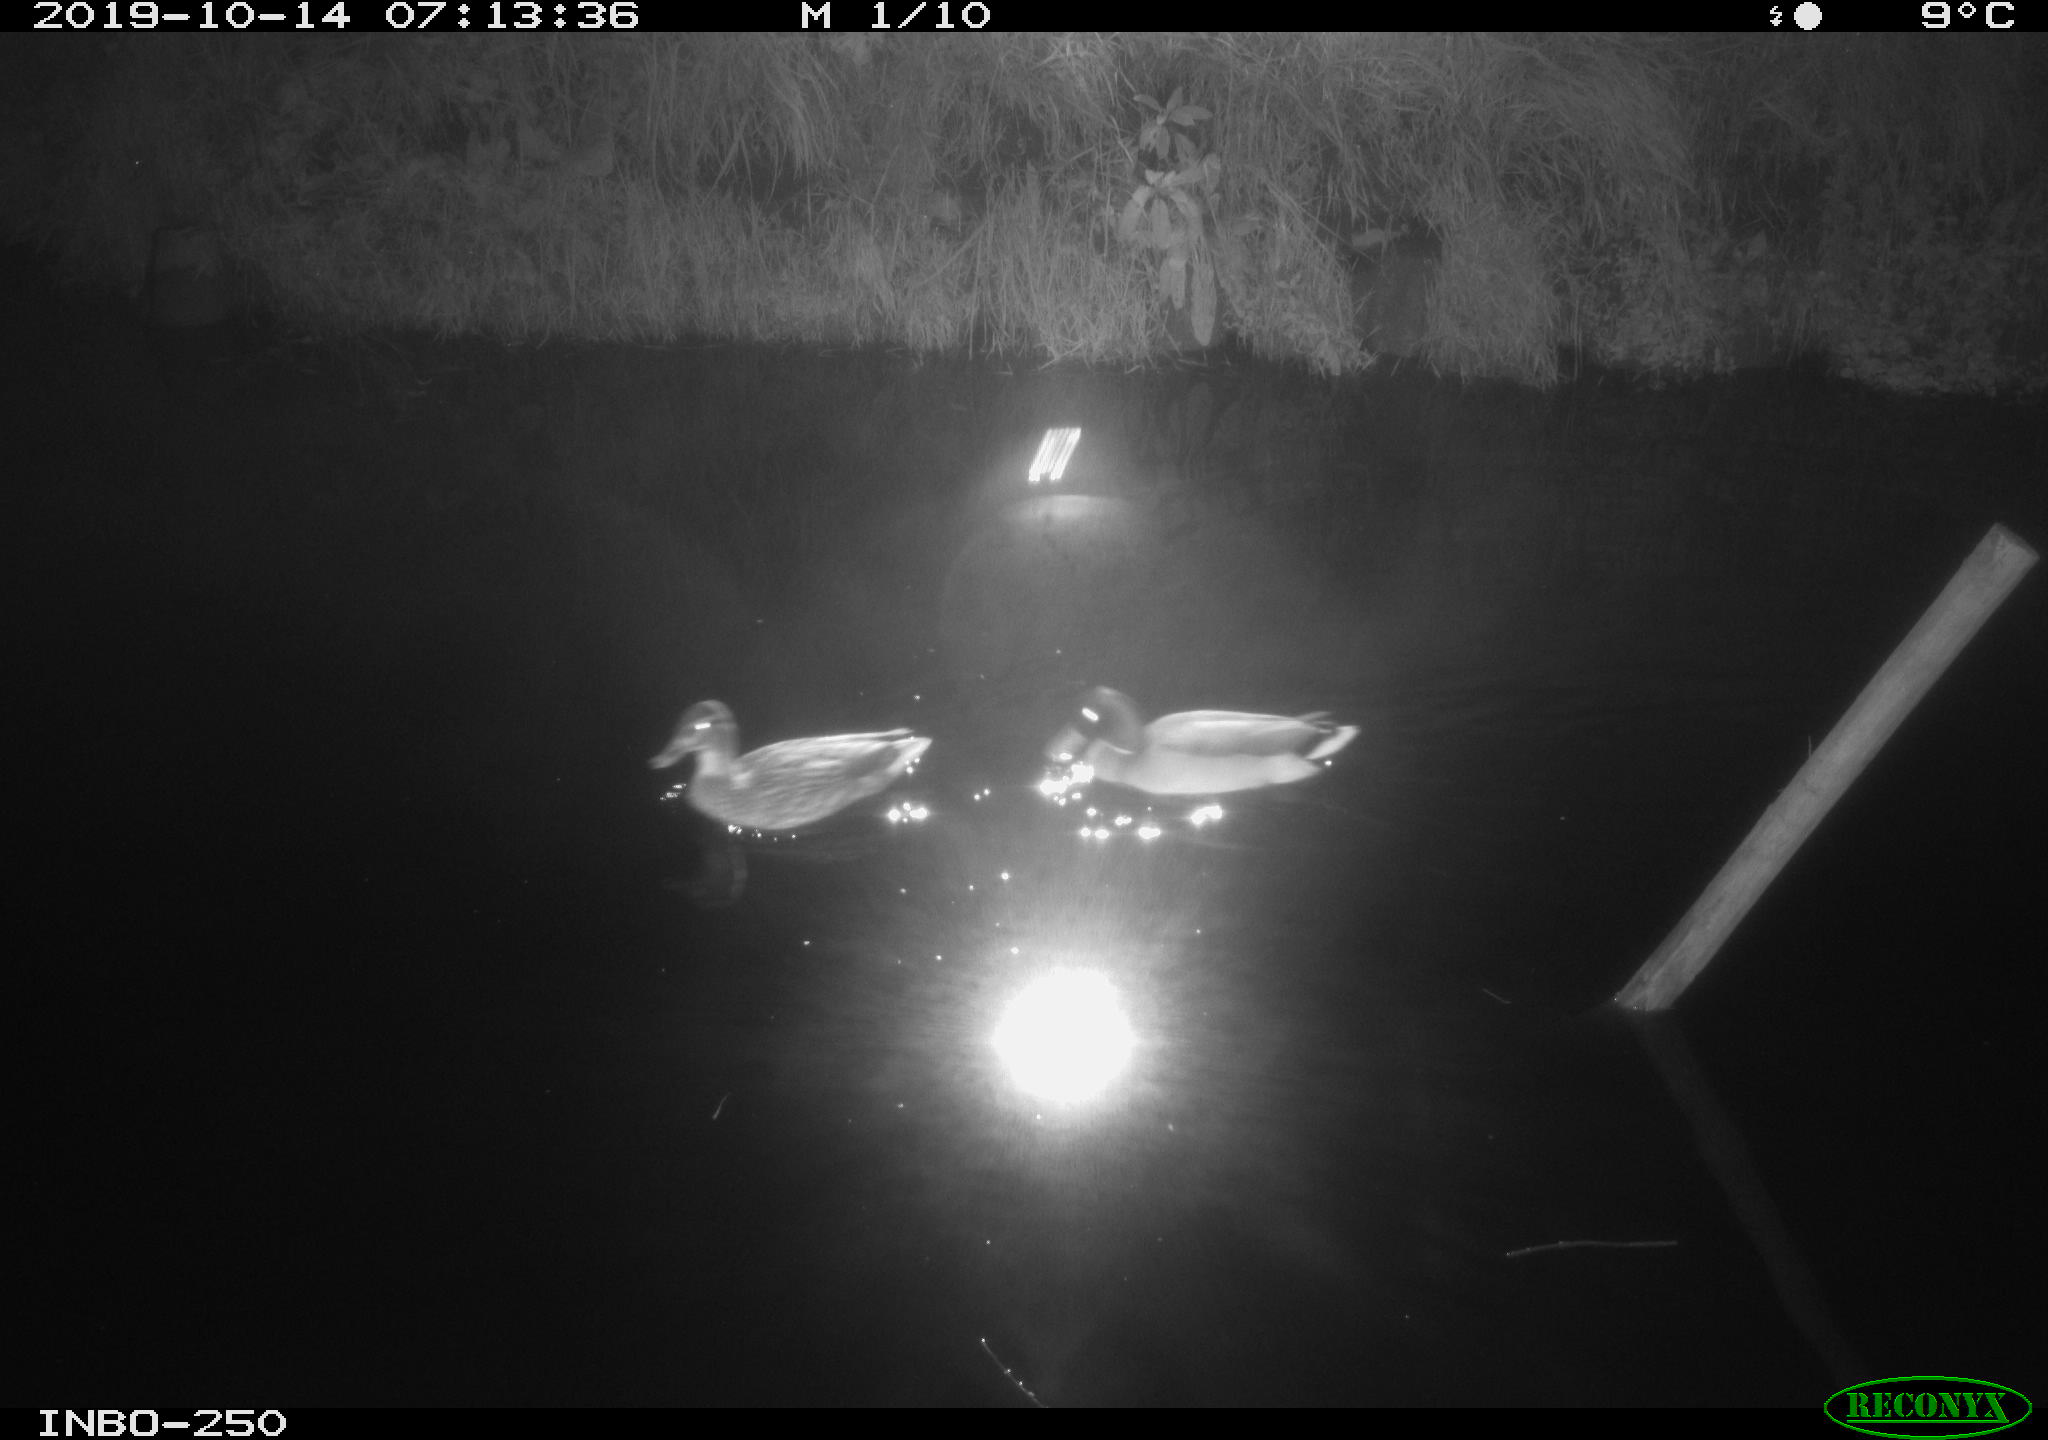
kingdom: Animalia
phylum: Chordata
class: Aves
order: Anseriformes
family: Anatidae
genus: Anas
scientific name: Anas platyrhynchos
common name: Mallard
